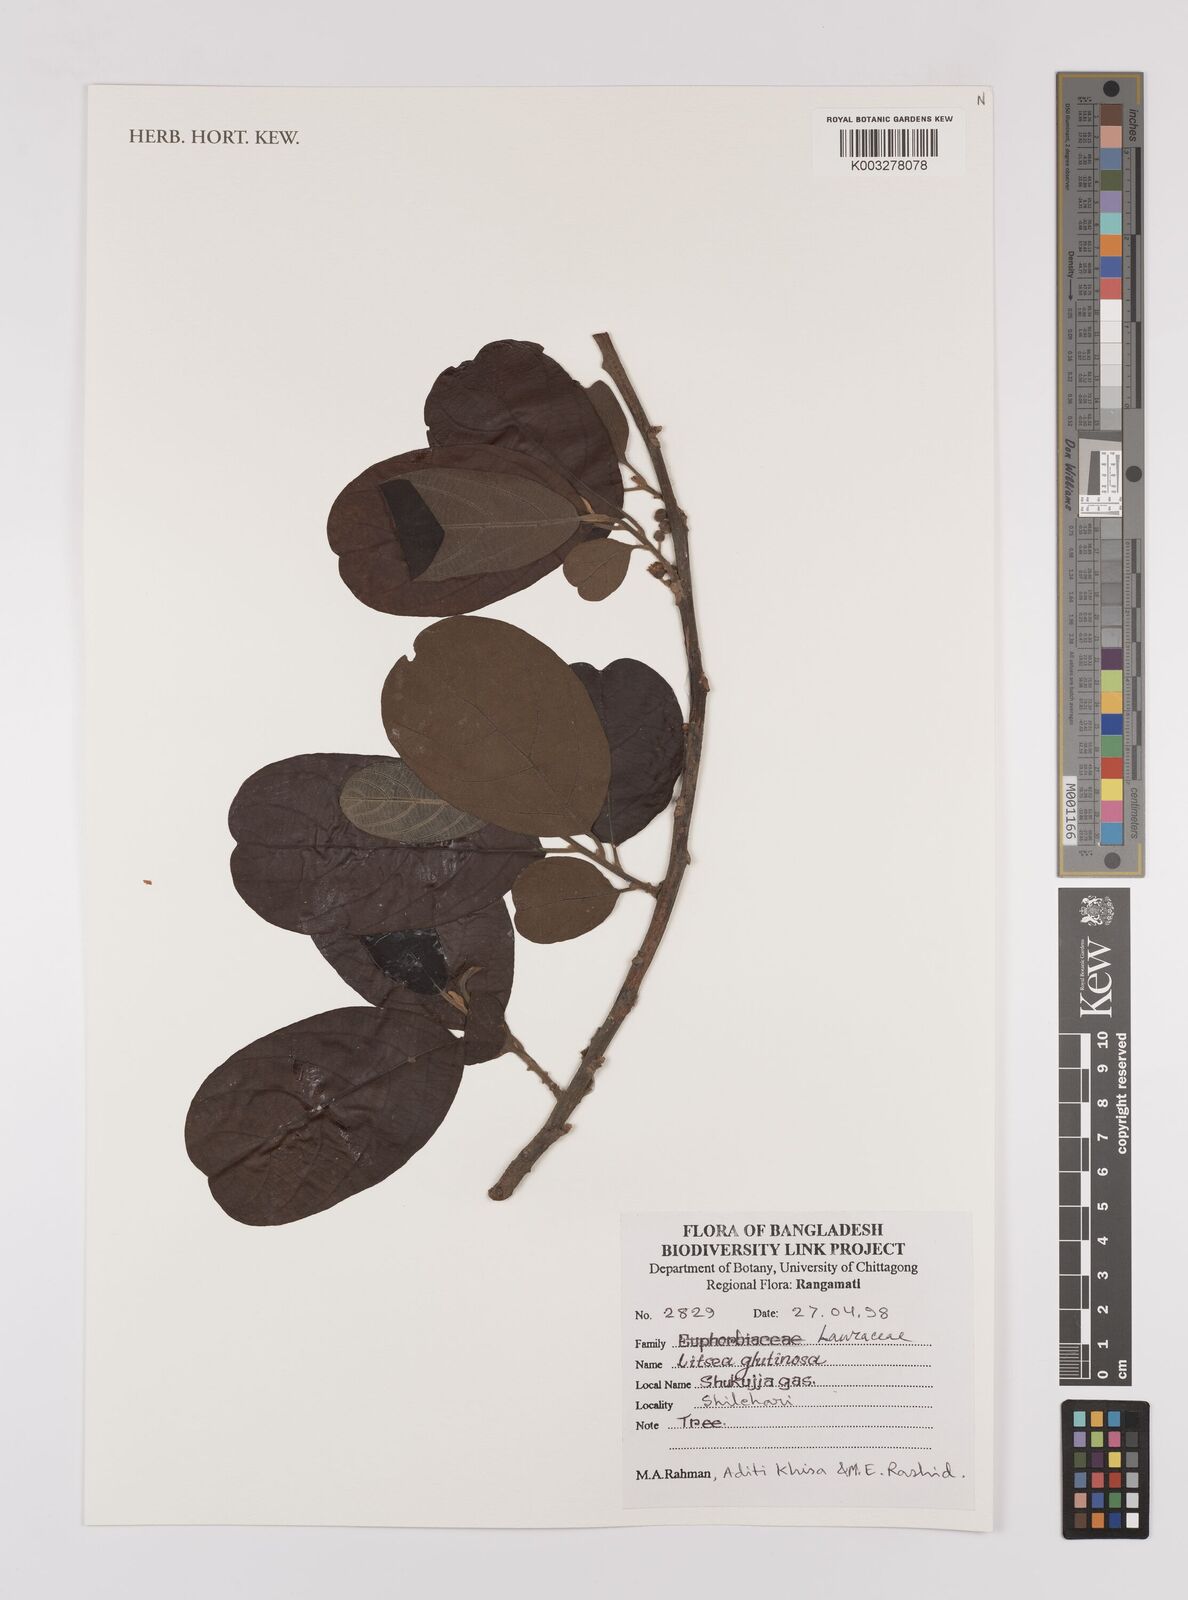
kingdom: Plantae
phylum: Tracheophyta
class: Magnoliopsida
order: Laurales
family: Lauraceae
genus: Litsea
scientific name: Litsea glutinosa
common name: Indian-laurel
